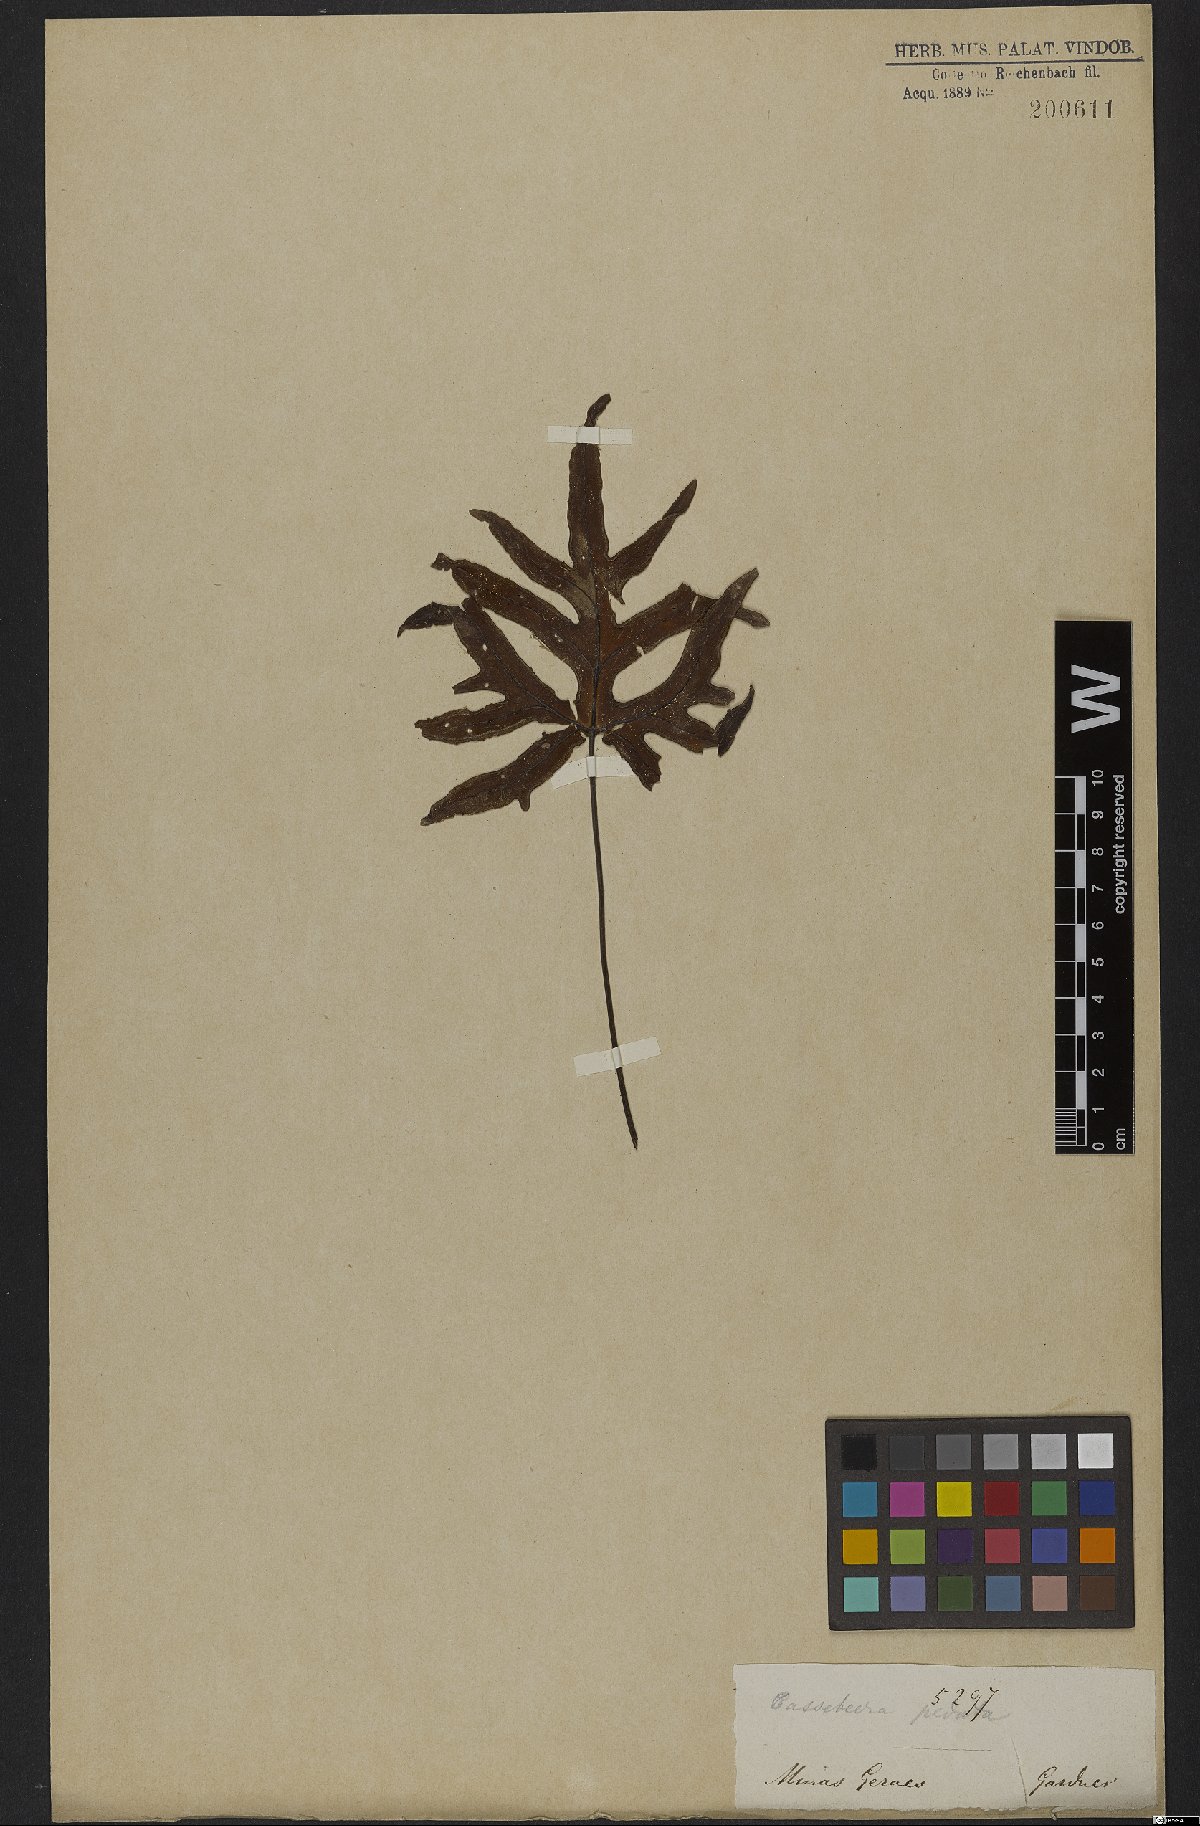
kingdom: Plantae
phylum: Tracheophyta
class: Polypodiopsida
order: Polypodiales
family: Pteridaceae
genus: Doryopteris
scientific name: Doryopteris pedata
